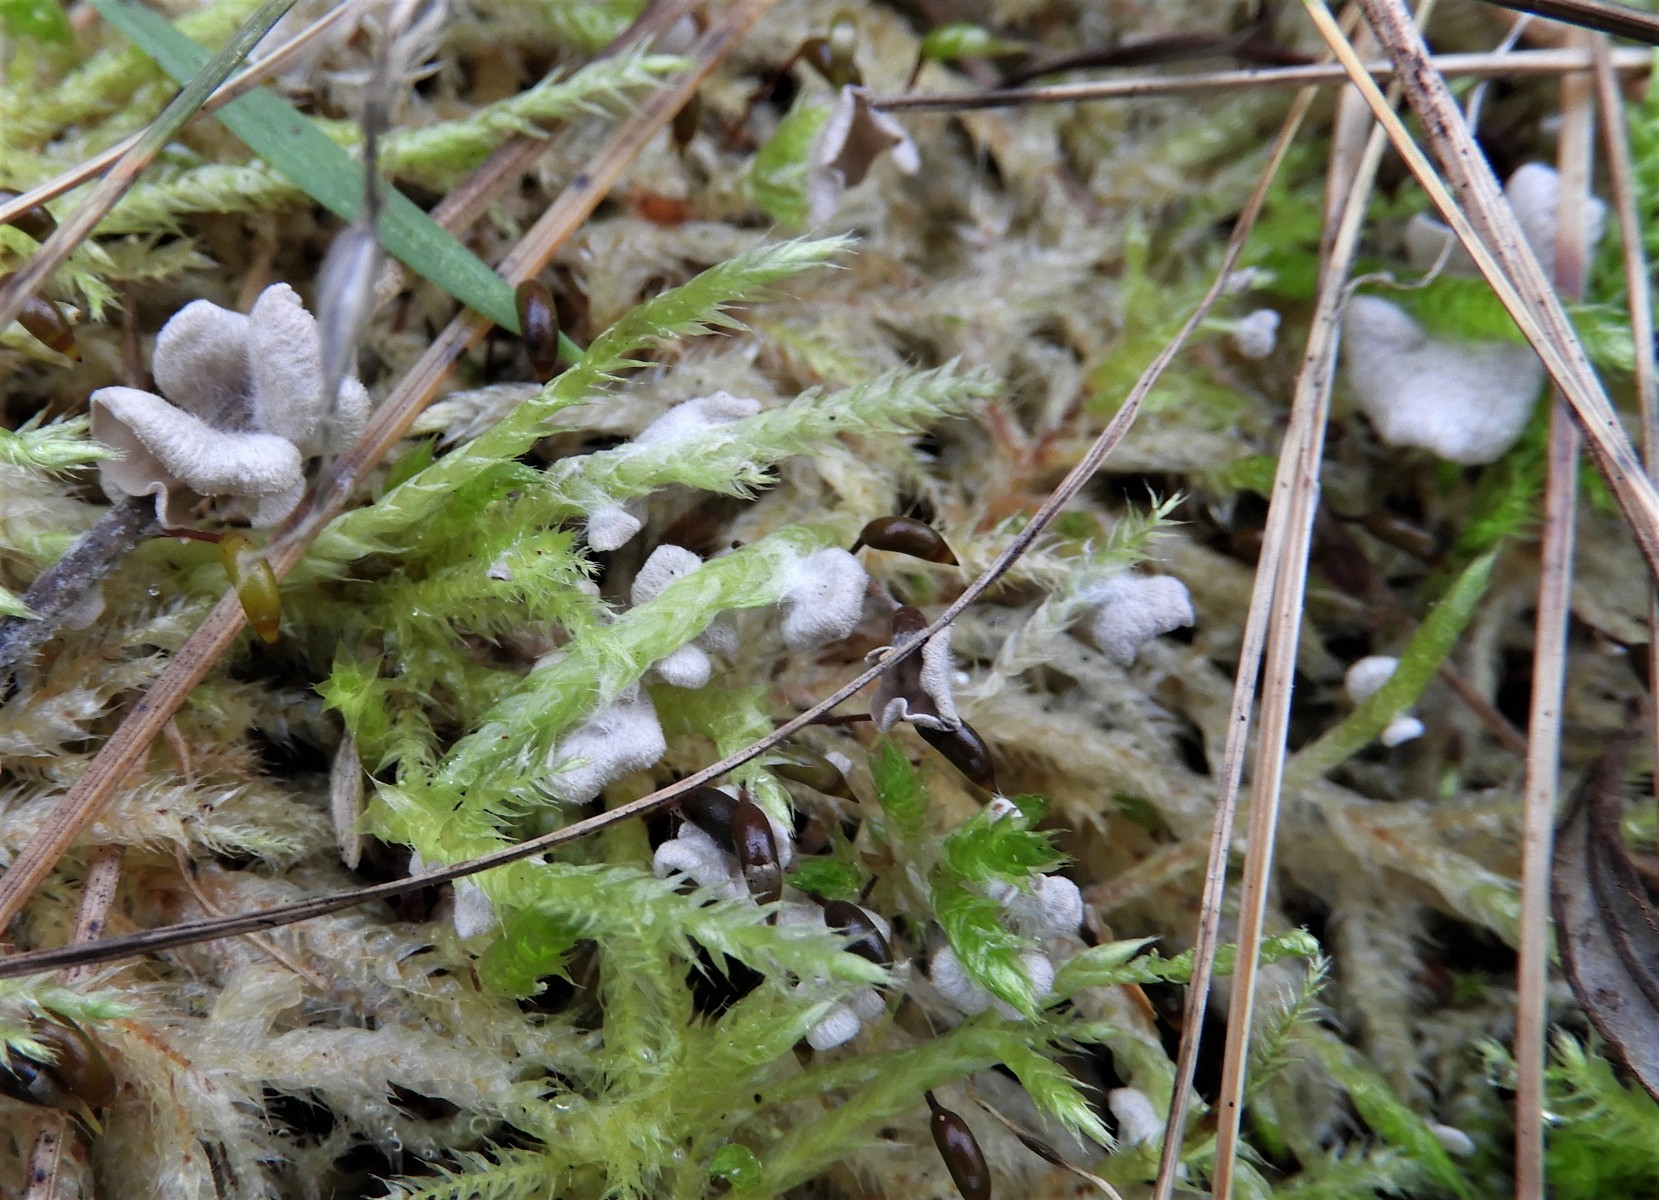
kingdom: Fungi
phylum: Basidiomycota
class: Agaricomycetes
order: Agaricales
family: Hygrophoraceae
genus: Arrhenia
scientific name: Arrhenia retiruga
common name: lille fontænehat
